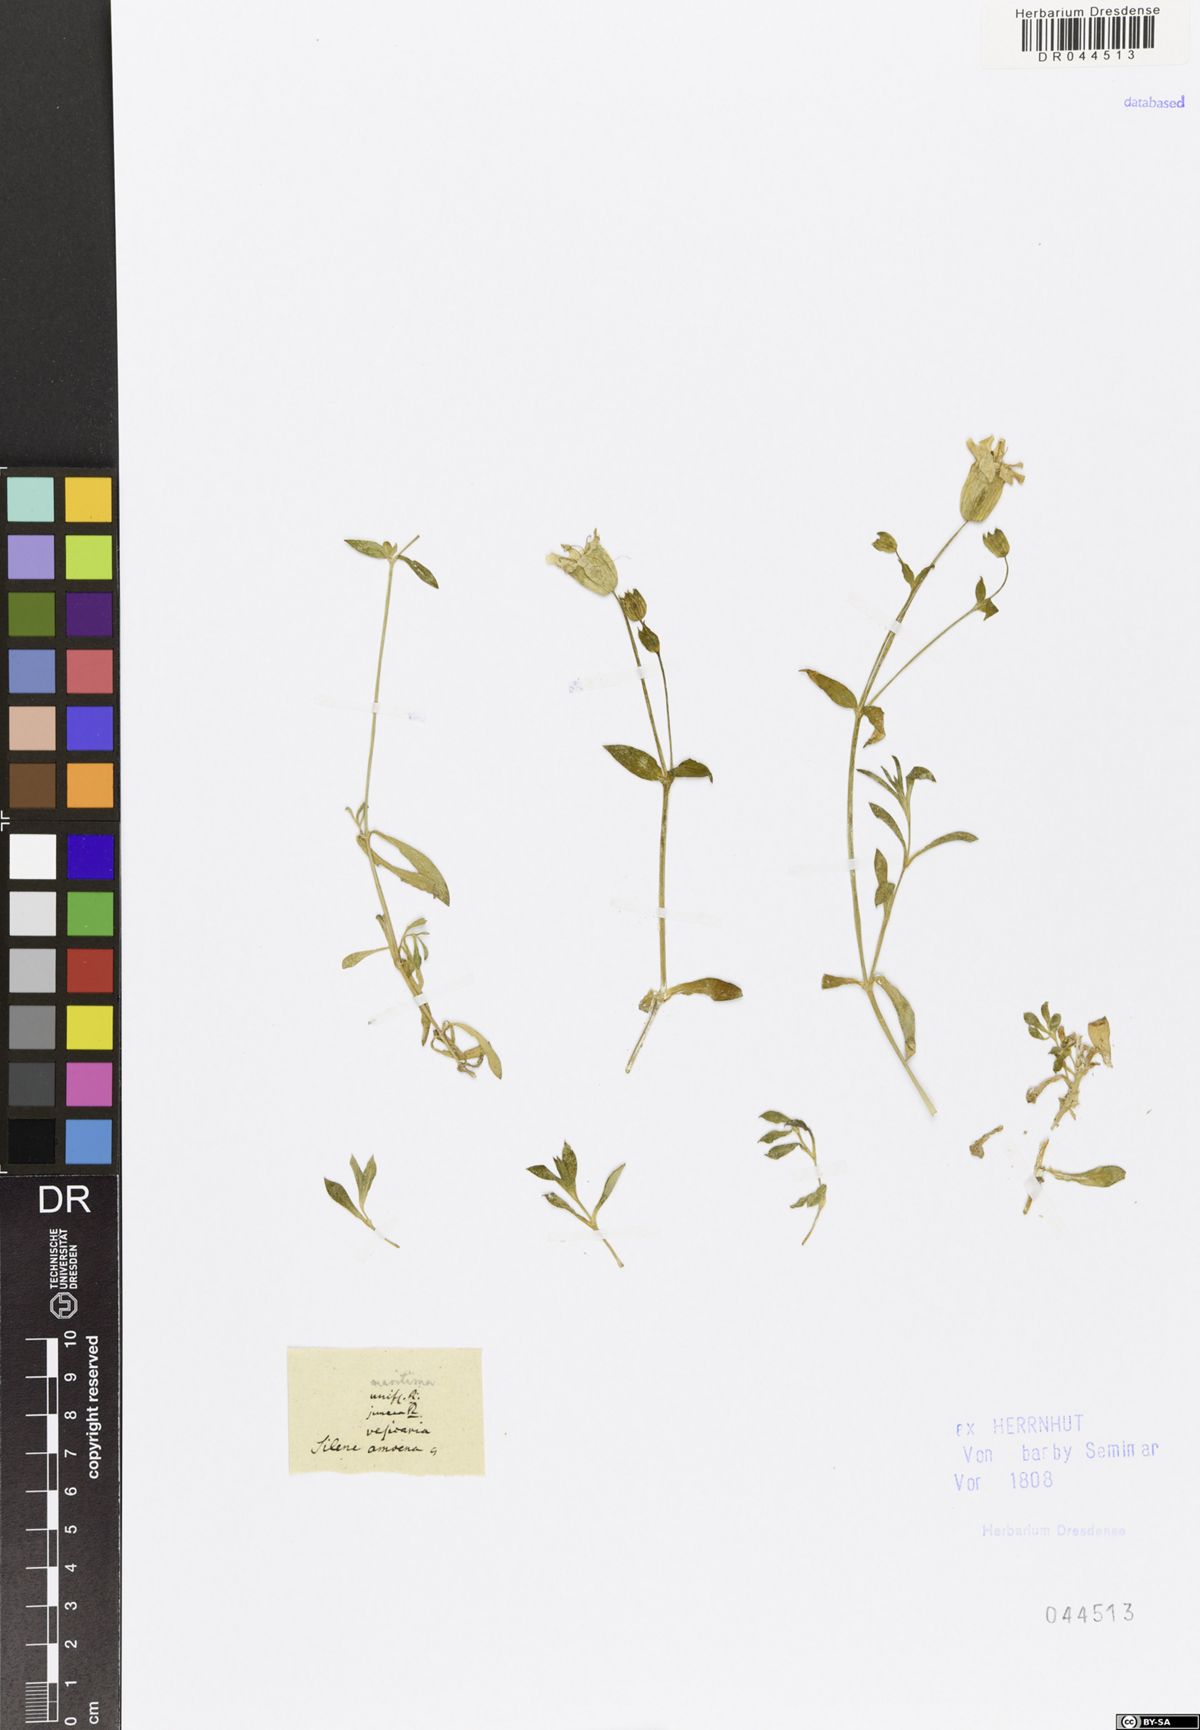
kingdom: Plantae
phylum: Tracheophyta
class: Magnoliopsida
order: Caryophyllales
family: Caryophyllaceae
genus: Silene
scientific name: Silene uniflora
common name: Sea campion
